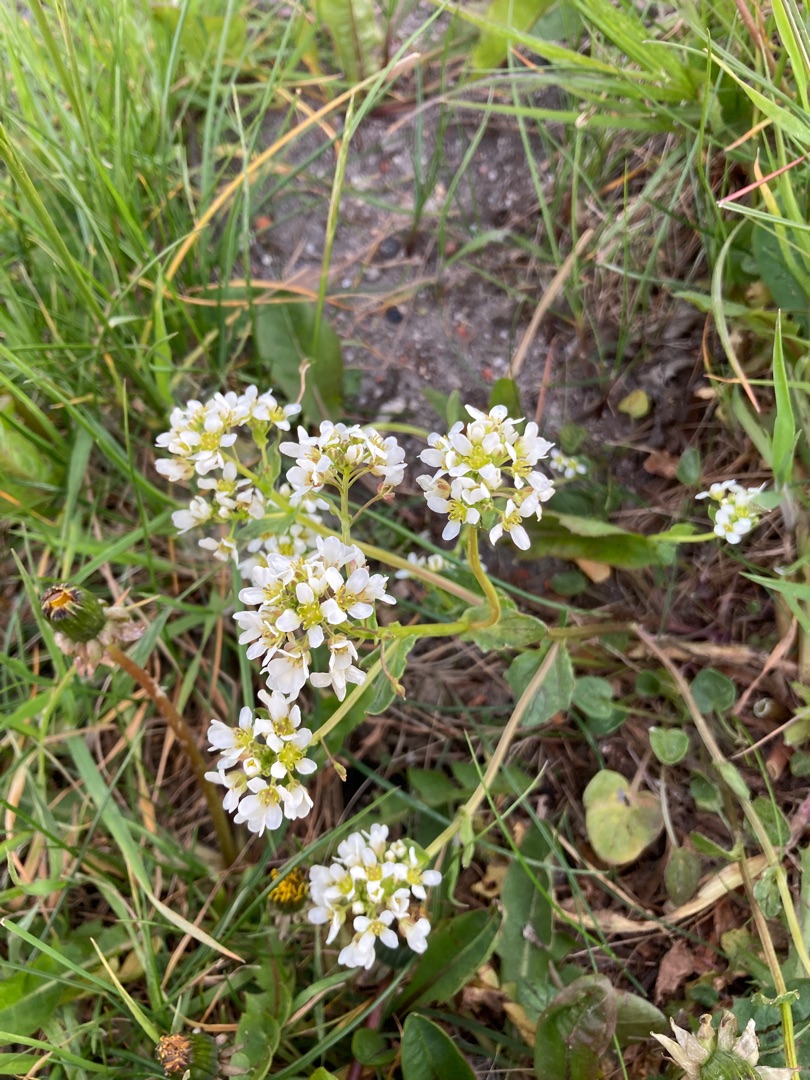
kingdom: Plantae
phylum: Tracheophyta
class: Magnoliopsida
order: Brassicales
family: Brassicaceae
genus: Cochlearia
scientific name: Cochlearia officinalis
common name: Læge-kokleare
